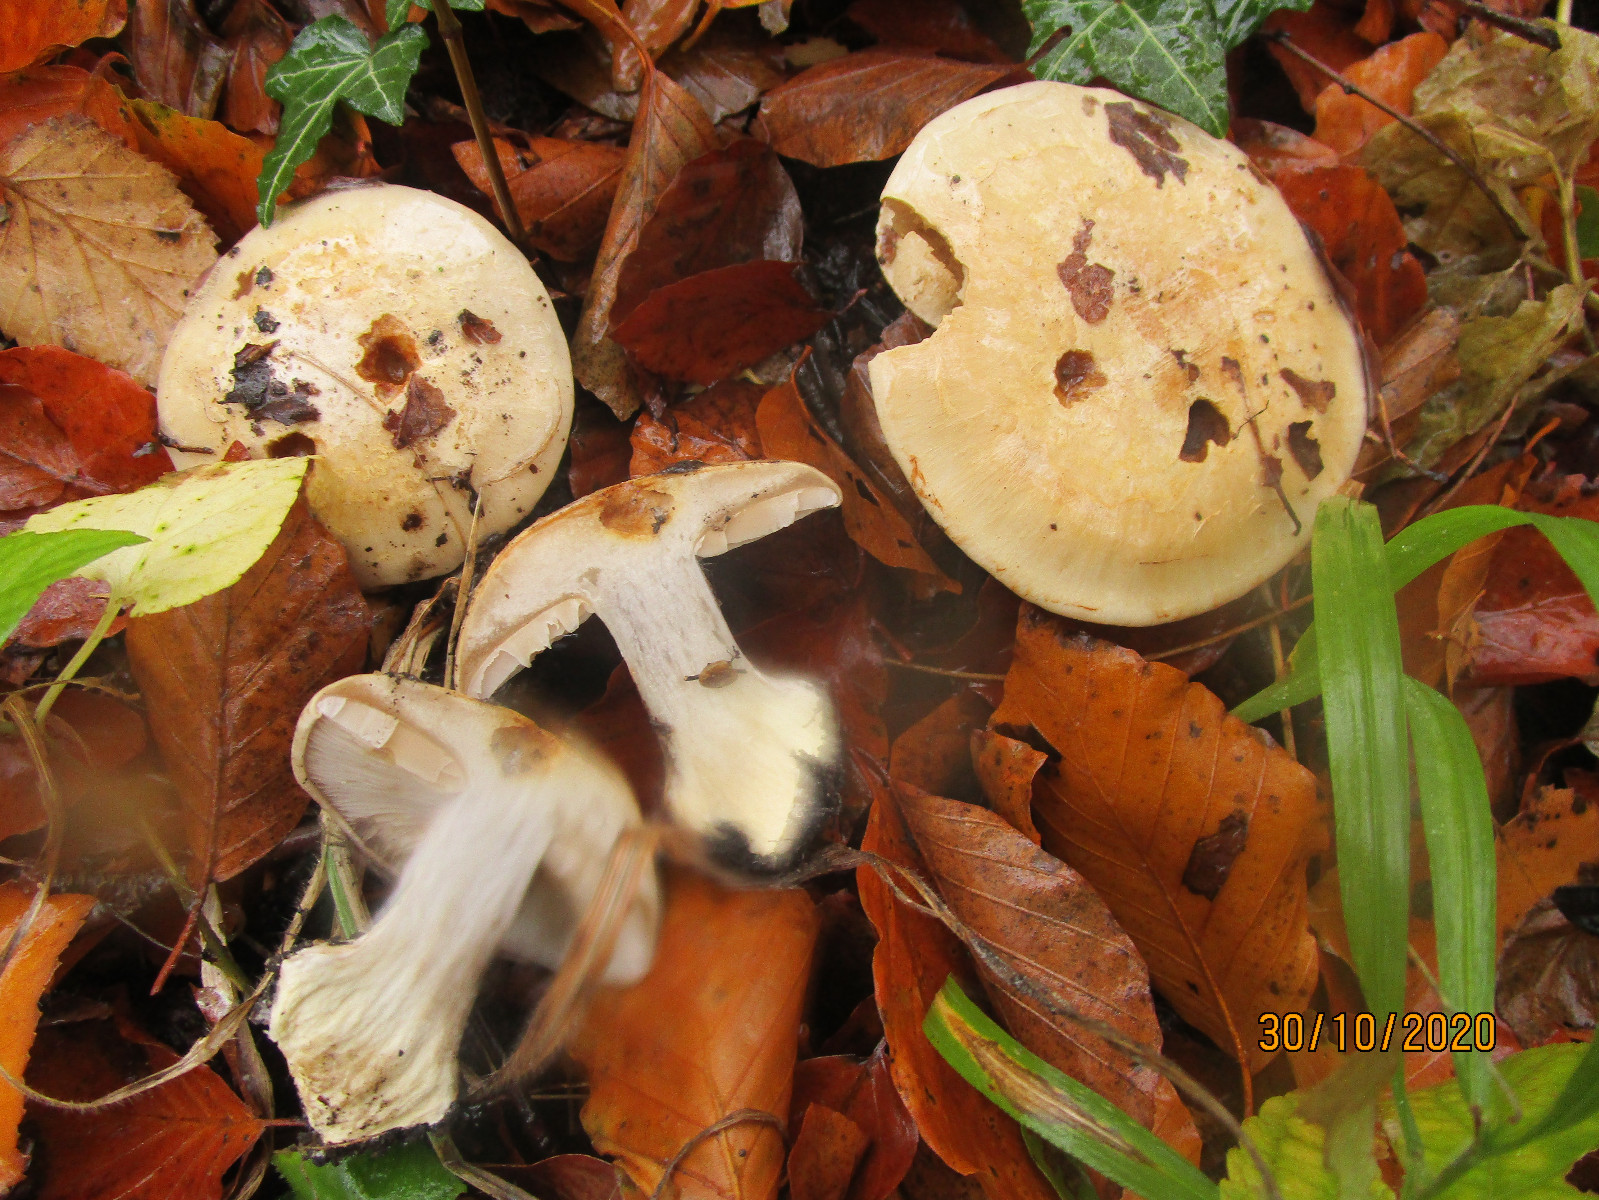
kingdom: Fungi
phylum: Basidiomycota
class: Agaricomycetes
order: Agaricales
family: Cortinariaceae
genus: Cortinarius
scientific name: Cortinarius foetens
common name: stribet slørhat
